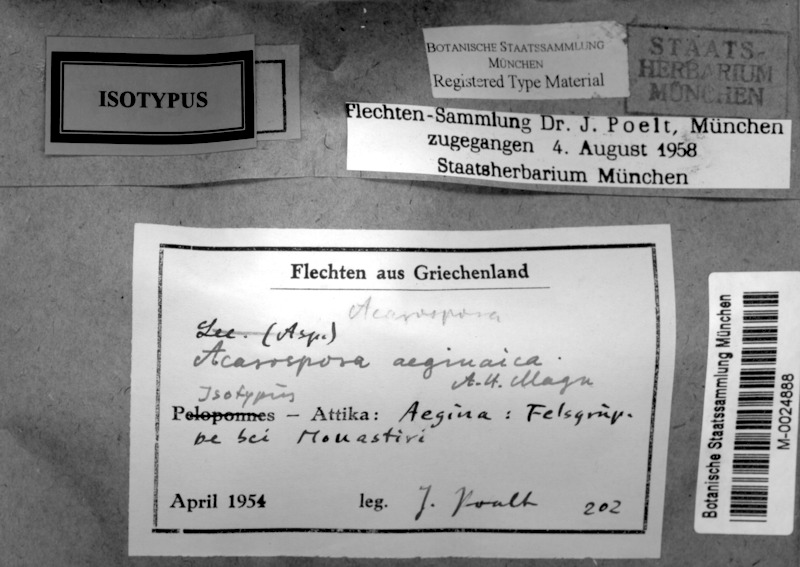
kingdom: Fungi
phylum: Ascomycota
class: Lecanoromycetes
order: Acarosporales
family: Acarosporaceae
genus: Acarospora
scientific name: Acarospora aeginaica
